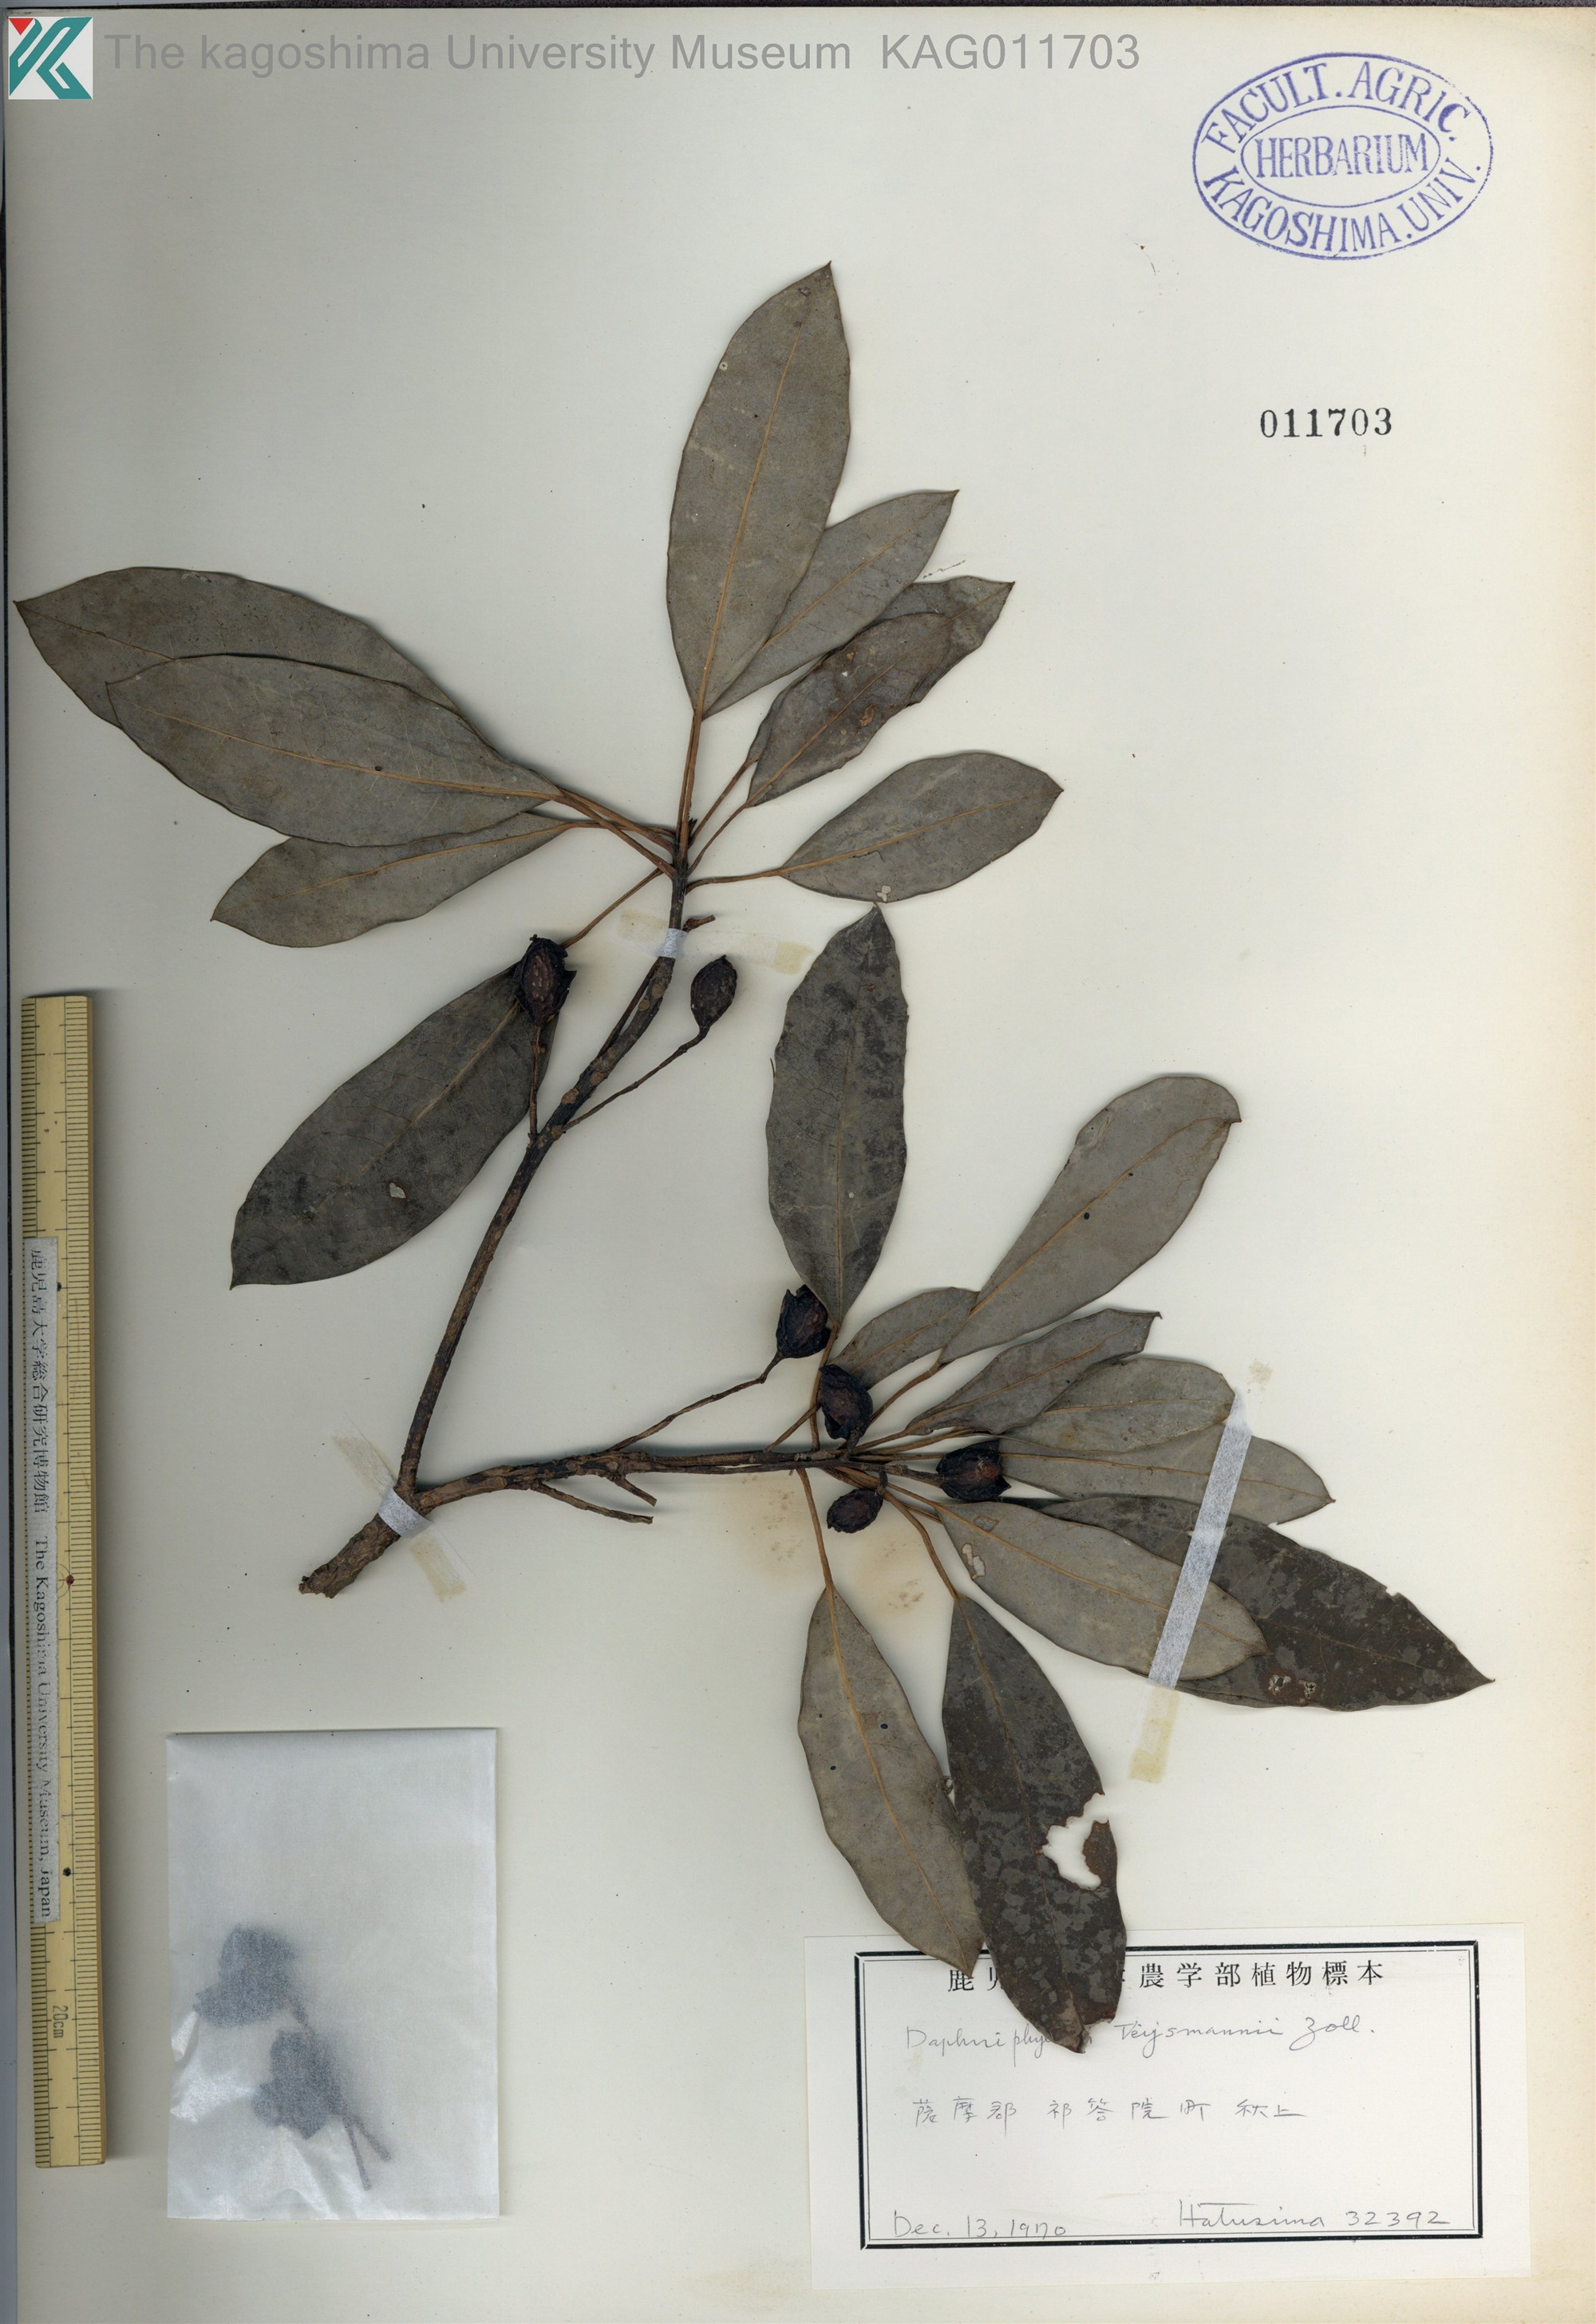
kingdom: Plantae
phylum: Tracheophyta
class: Magnoliopsida
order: Saxifragales
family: Daphniphyllaceae
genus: Daphniphyllum
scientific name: Daphniphyllum teijsmannii
